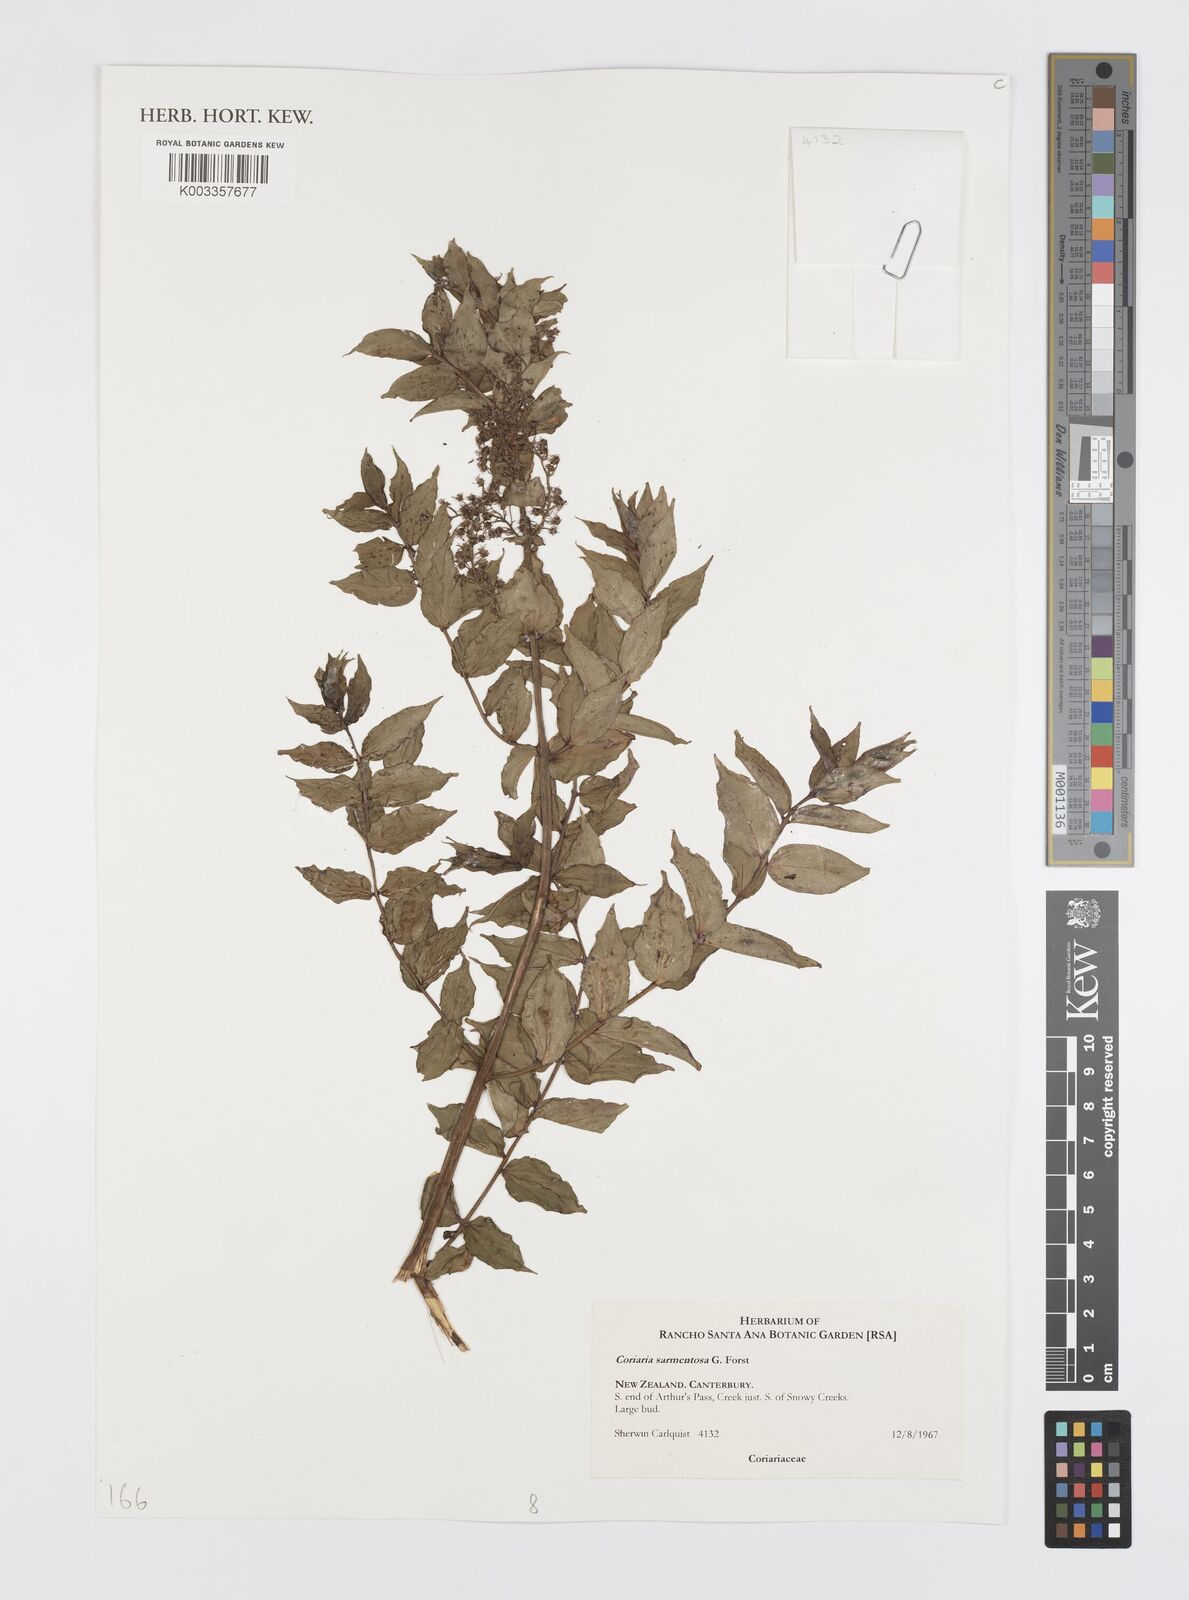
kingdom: Plantae
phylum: Tracheophyta
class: Magnoliopsida
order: Cucurbitales
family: Coriariaceae
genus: Coriaria
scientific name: Coriaria sarmentosa
